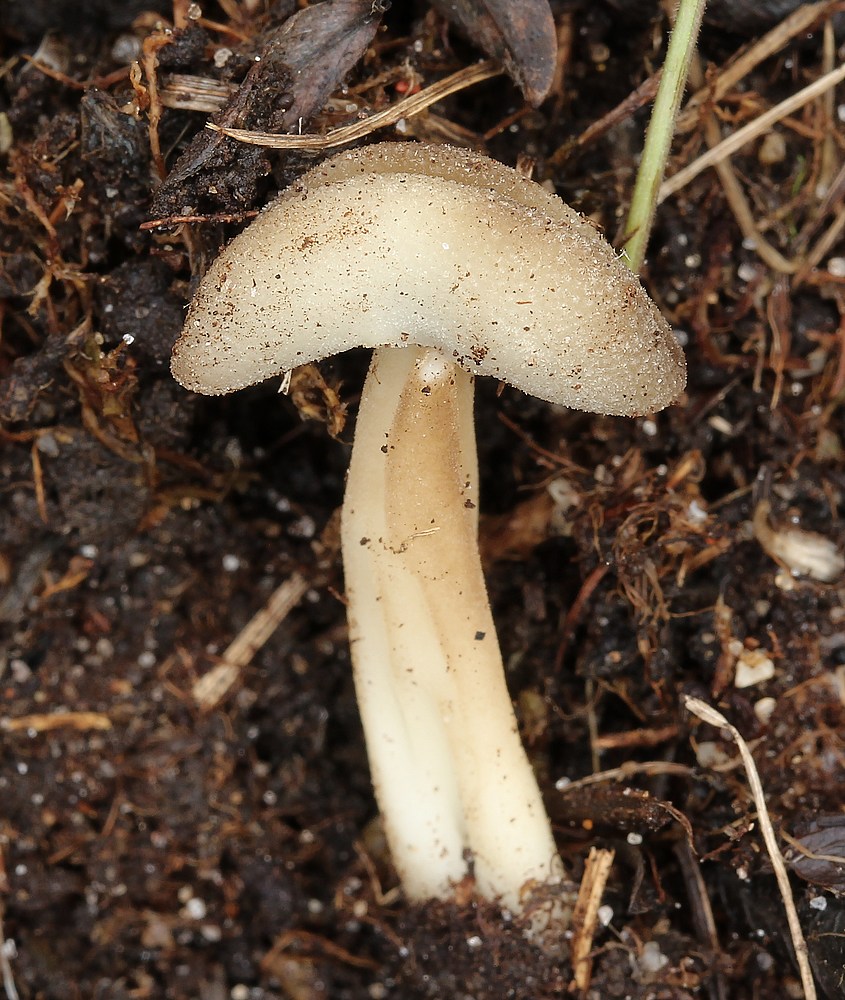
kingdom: Fungi
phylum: Ascomycota
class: Pezizomycetes
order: Pezizales
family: Helvellaceae
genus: Helvella
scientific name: Helvella solitaria
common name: Quélets foldhat
